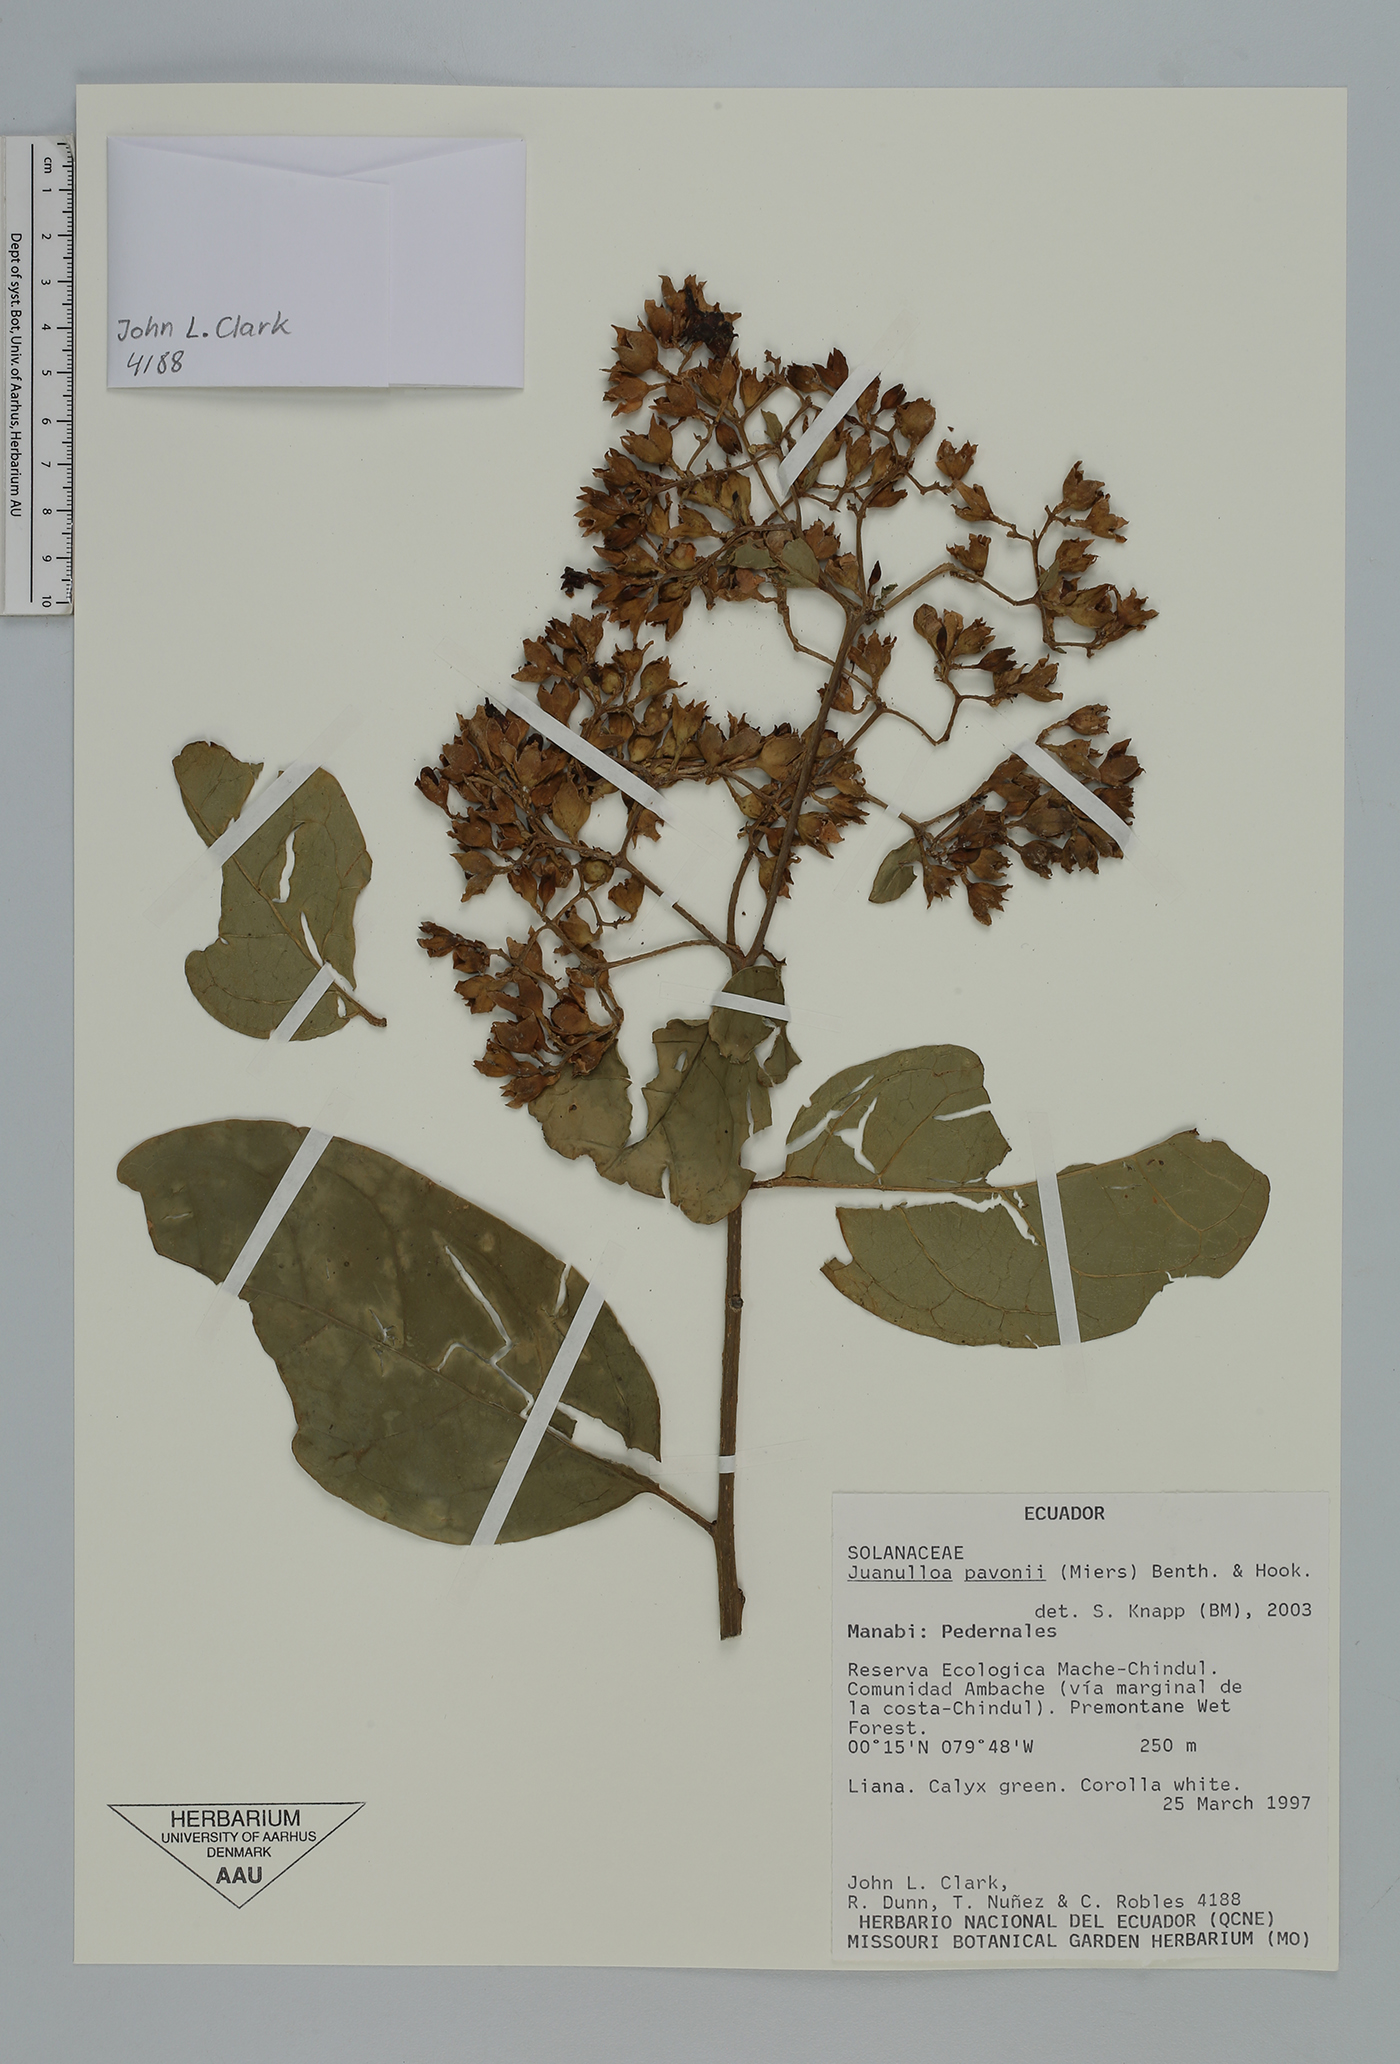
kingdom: Plantae
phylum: Tracheophyta
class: Magnoliopsida
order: Solanales
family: Solanaceae
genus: Markea
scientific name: Markea pavonii
